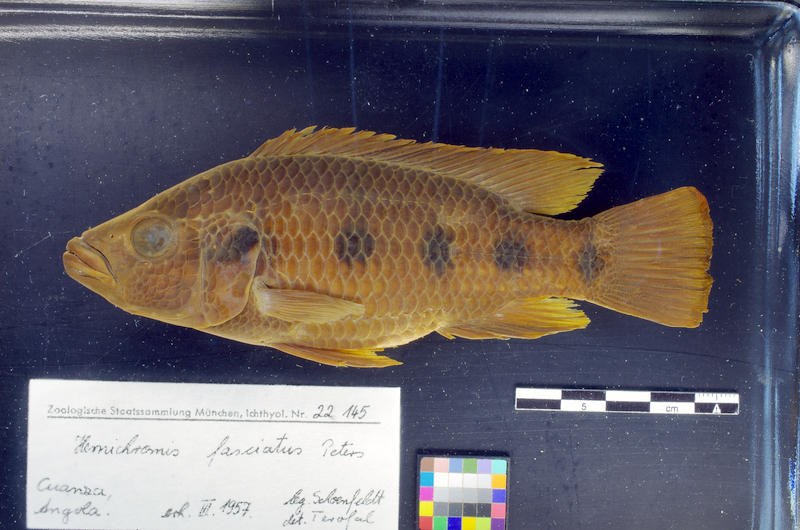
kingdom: Animalia
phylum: Chordata
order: Perciformes
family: Cichlidae
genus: Hemichromis
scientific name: Hemichromis angolensis
